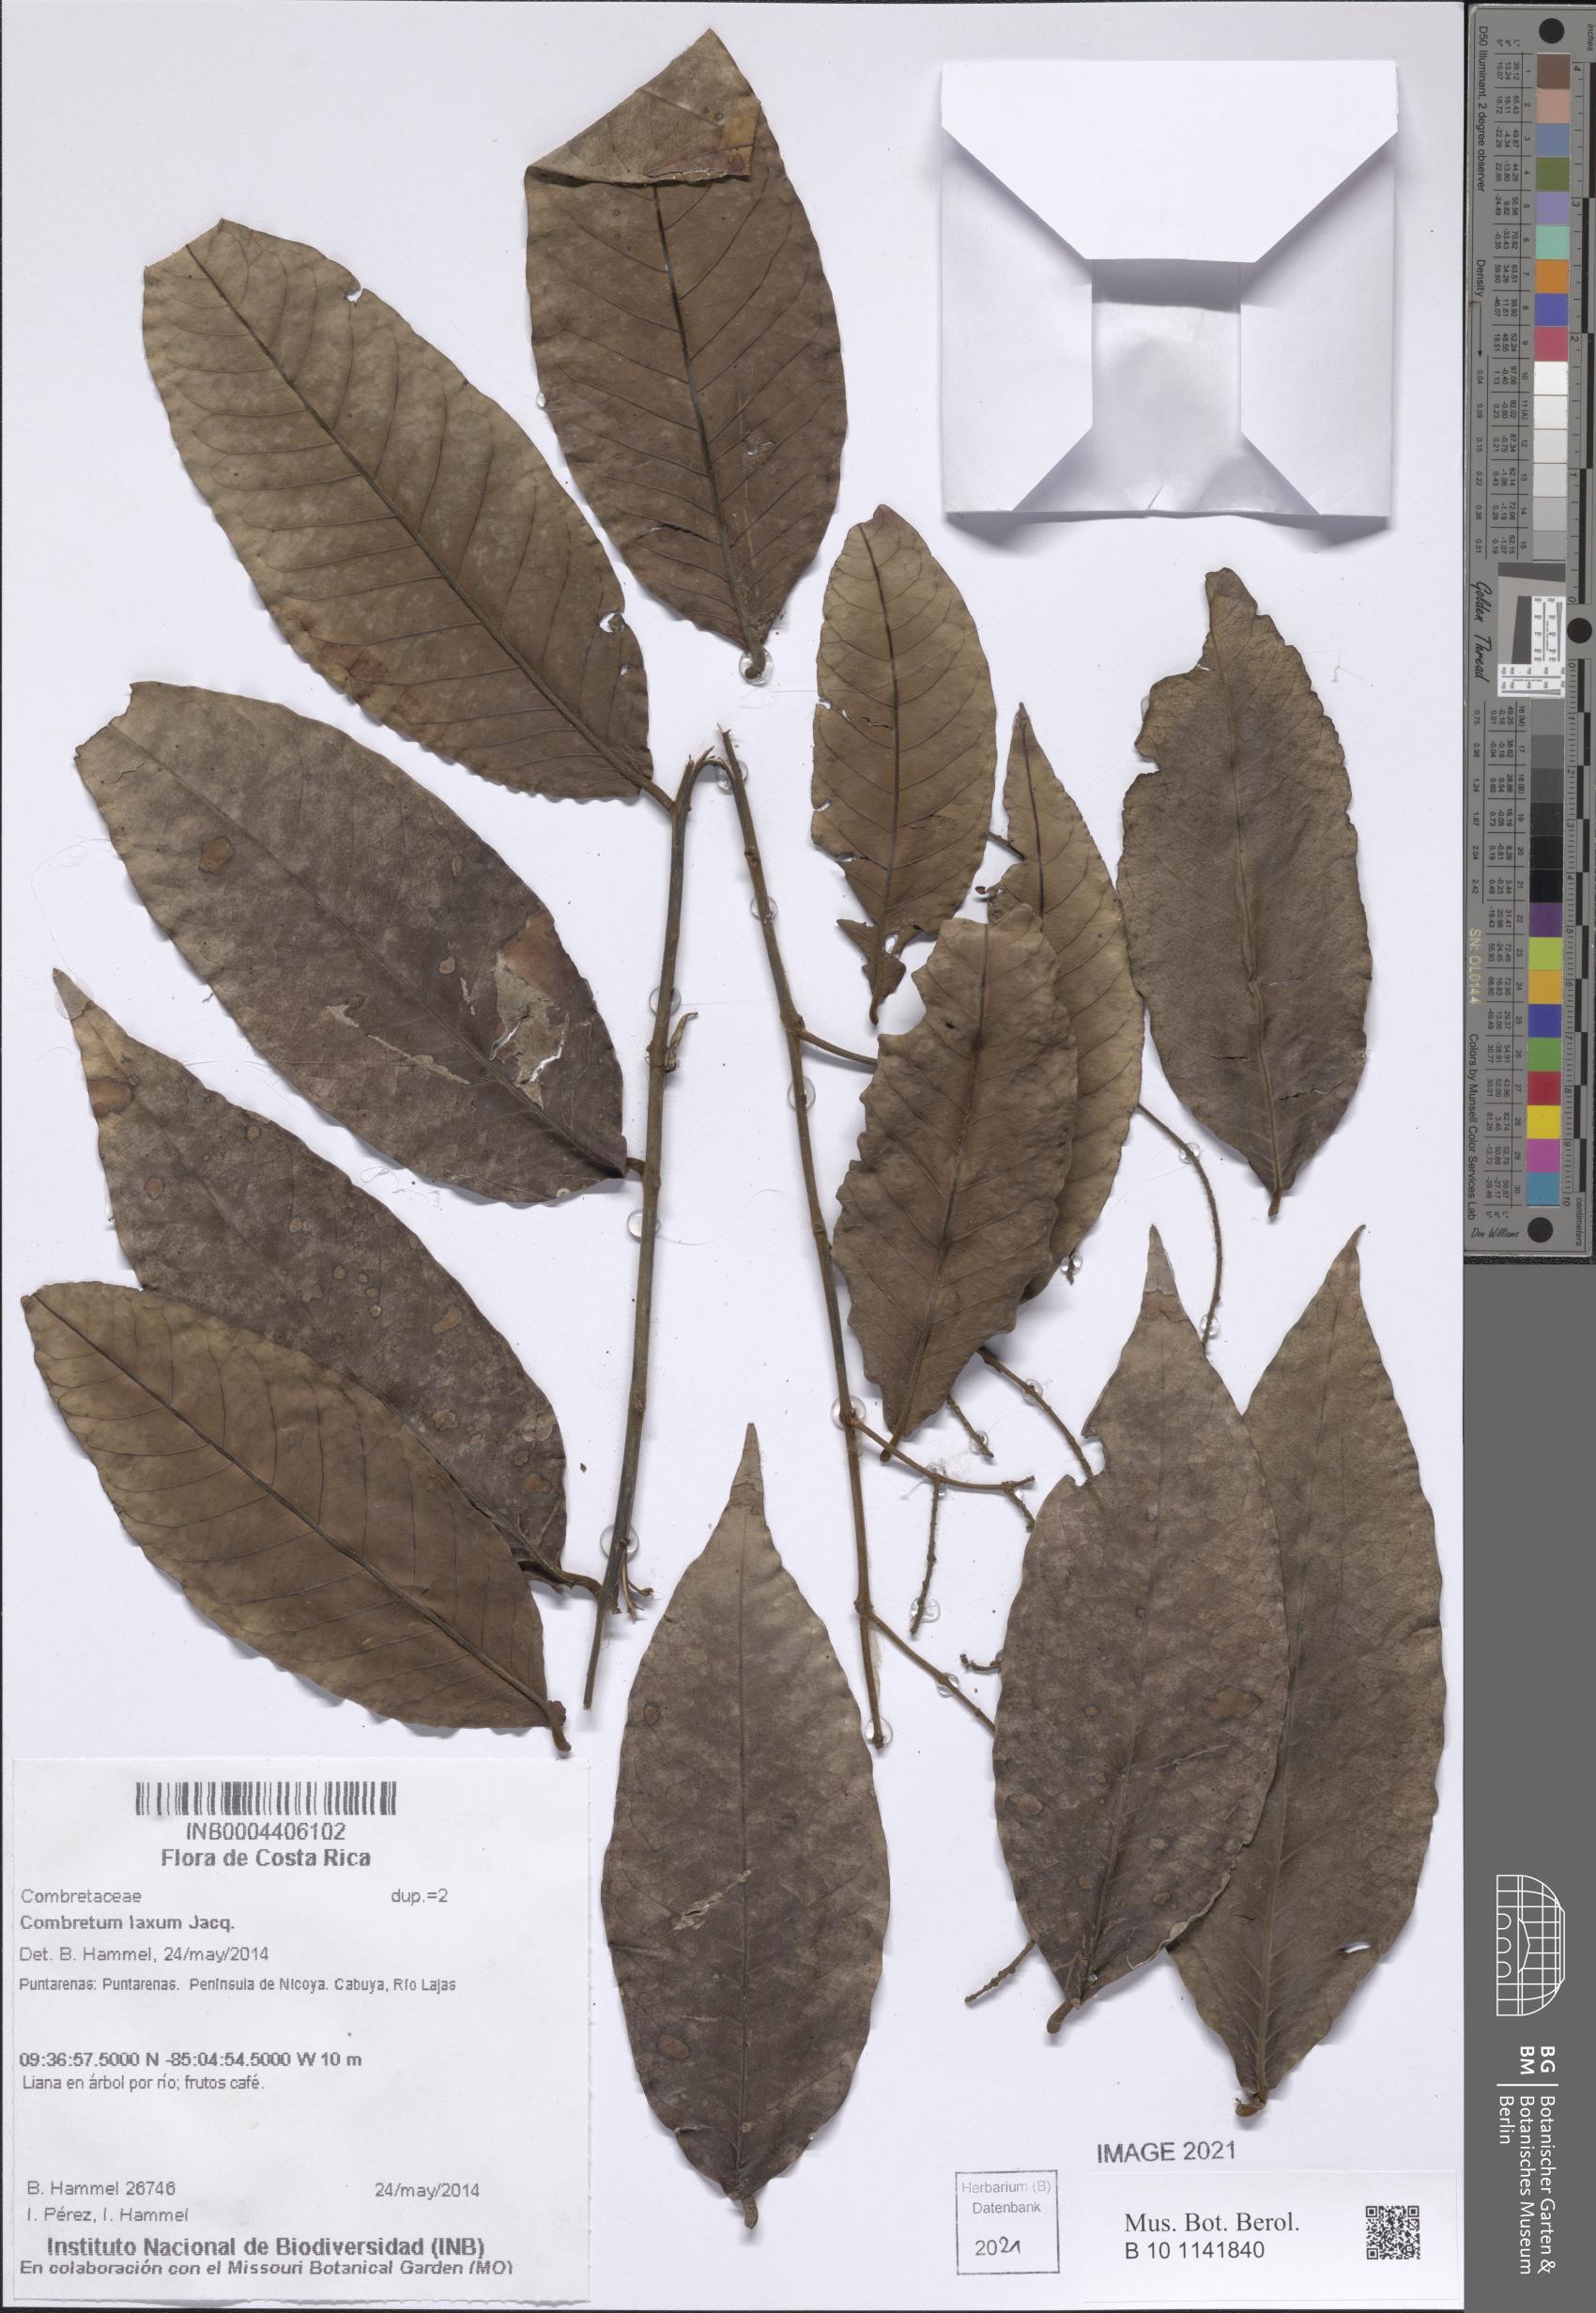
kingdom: Plantae
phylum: Tracheophyta
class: Magnoliopsida
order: Myrtales
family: Combretaceae
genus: Combretum
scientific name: Combretum laxum
